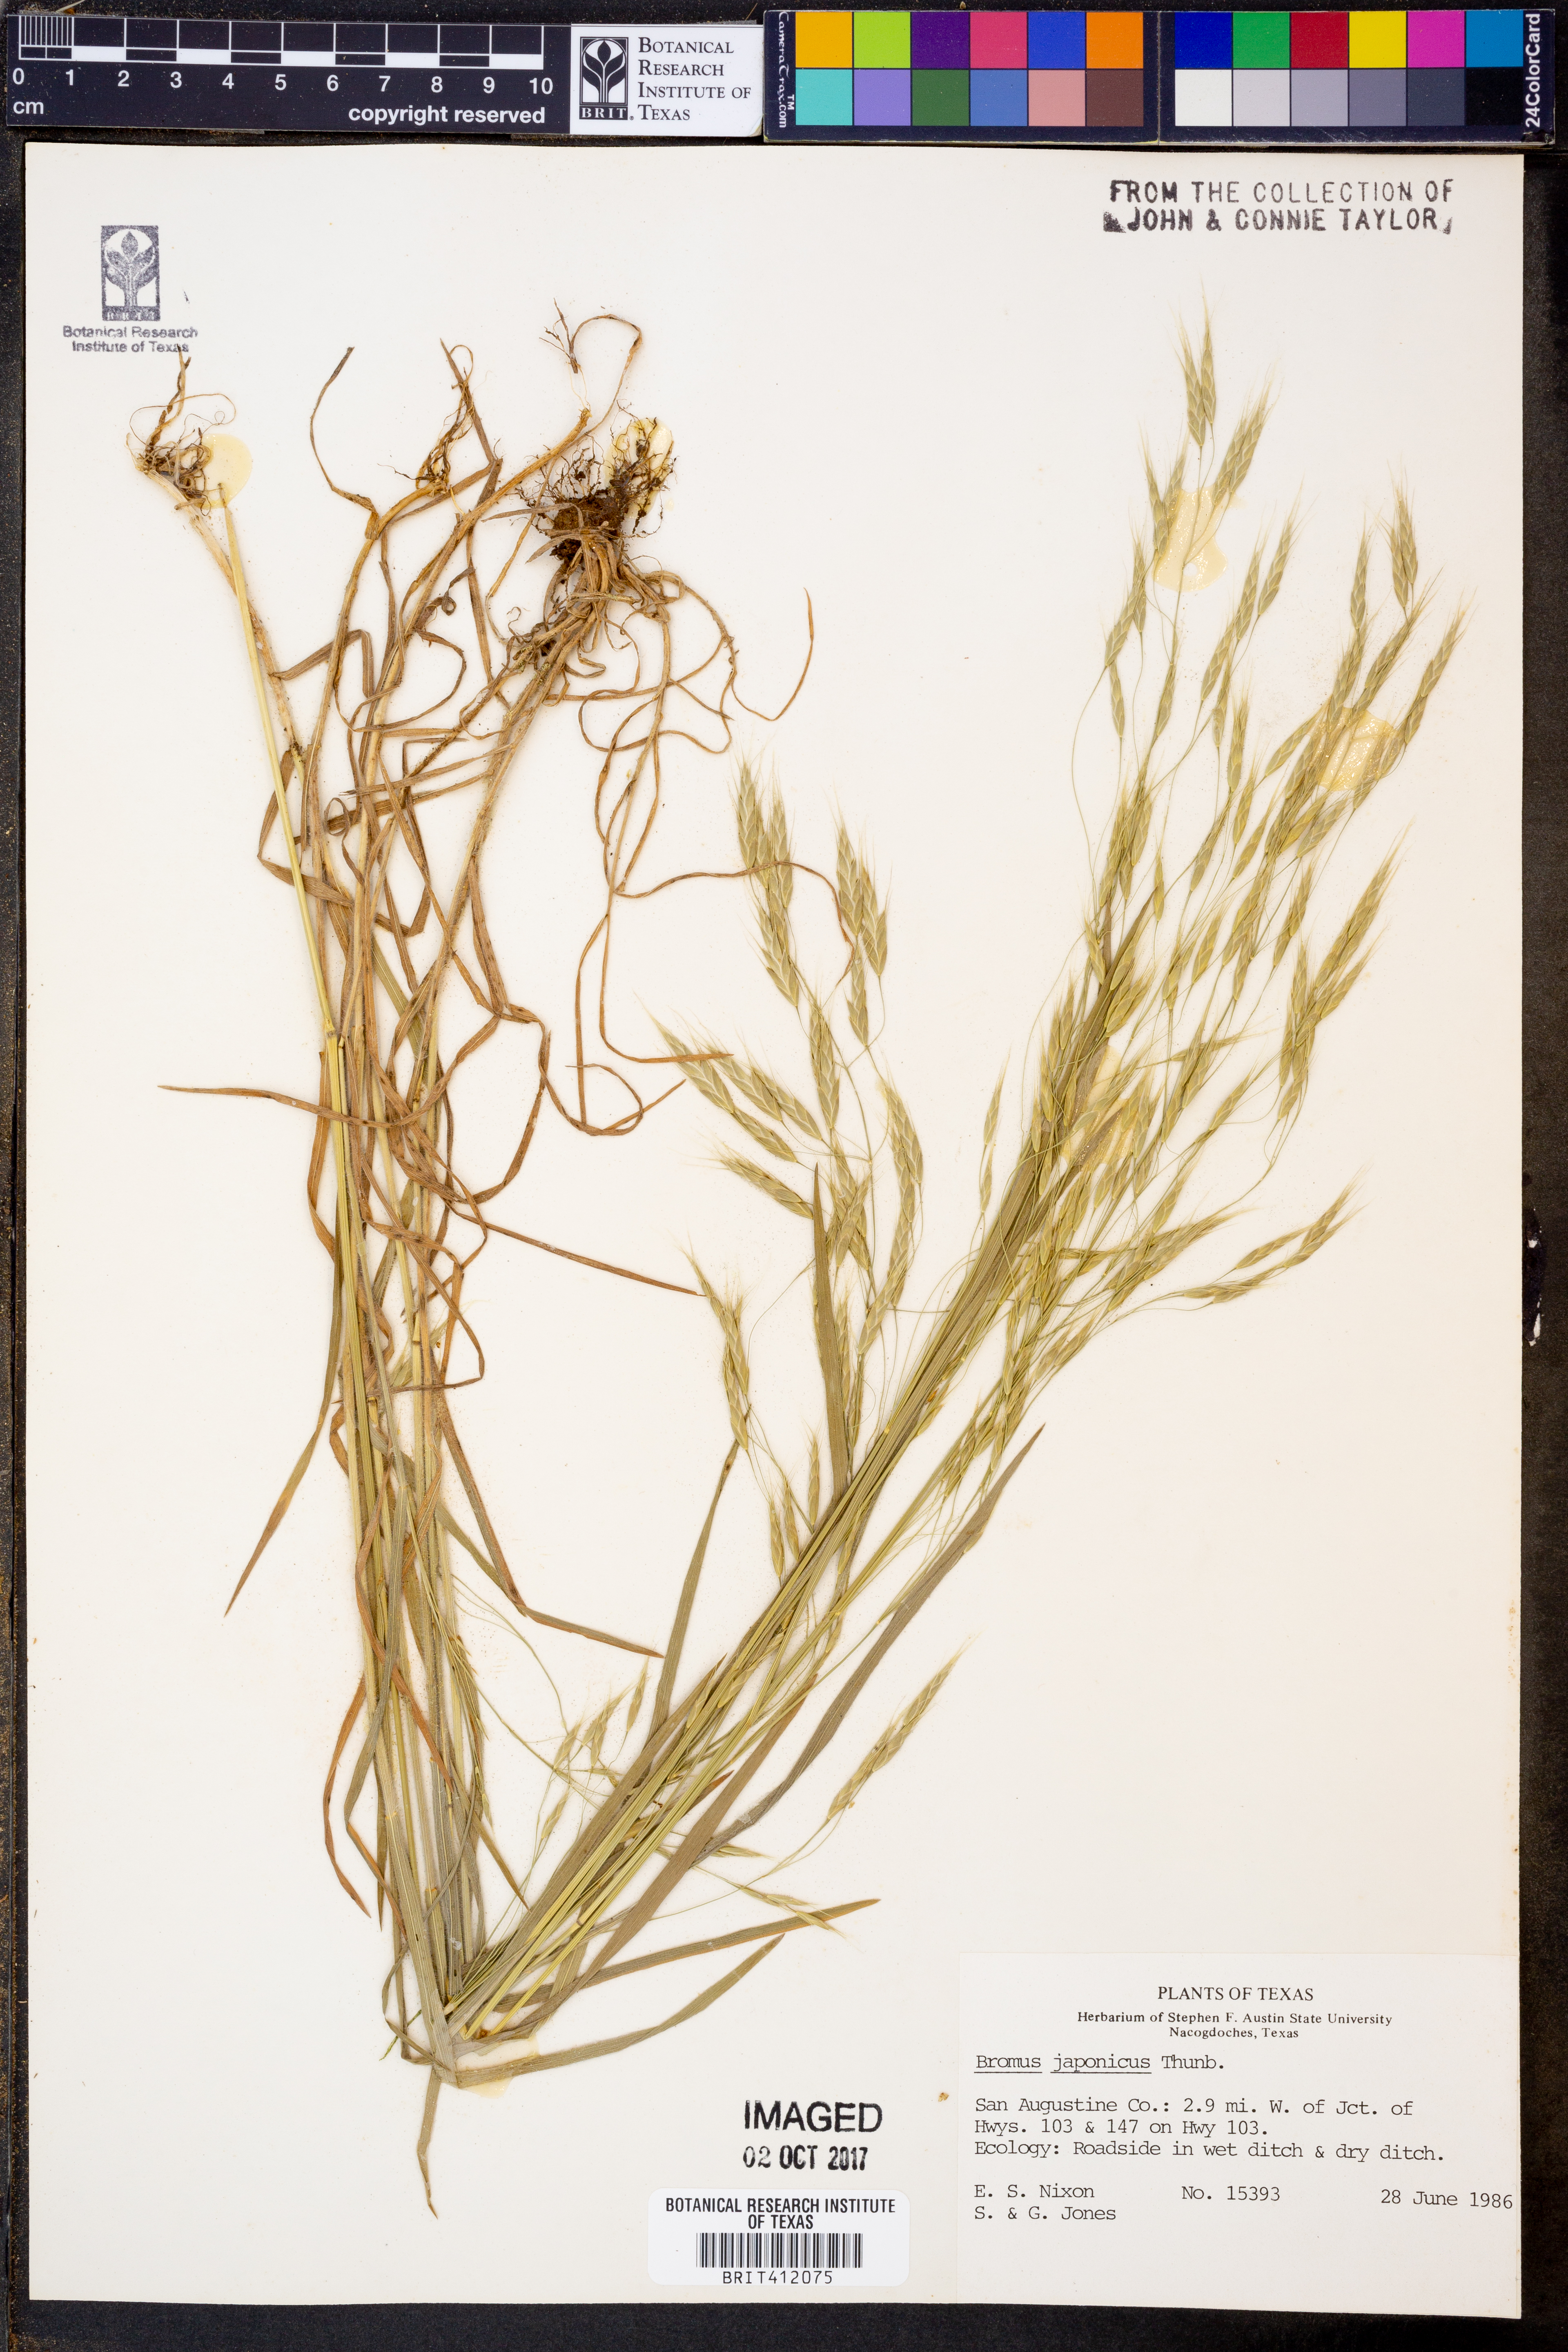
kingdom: Plantae
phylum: Tracheophyta
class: Liliopsida
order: Poales
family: Poaceae
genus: Bromus
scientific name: Bromus japonicus
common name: Japanese brome
